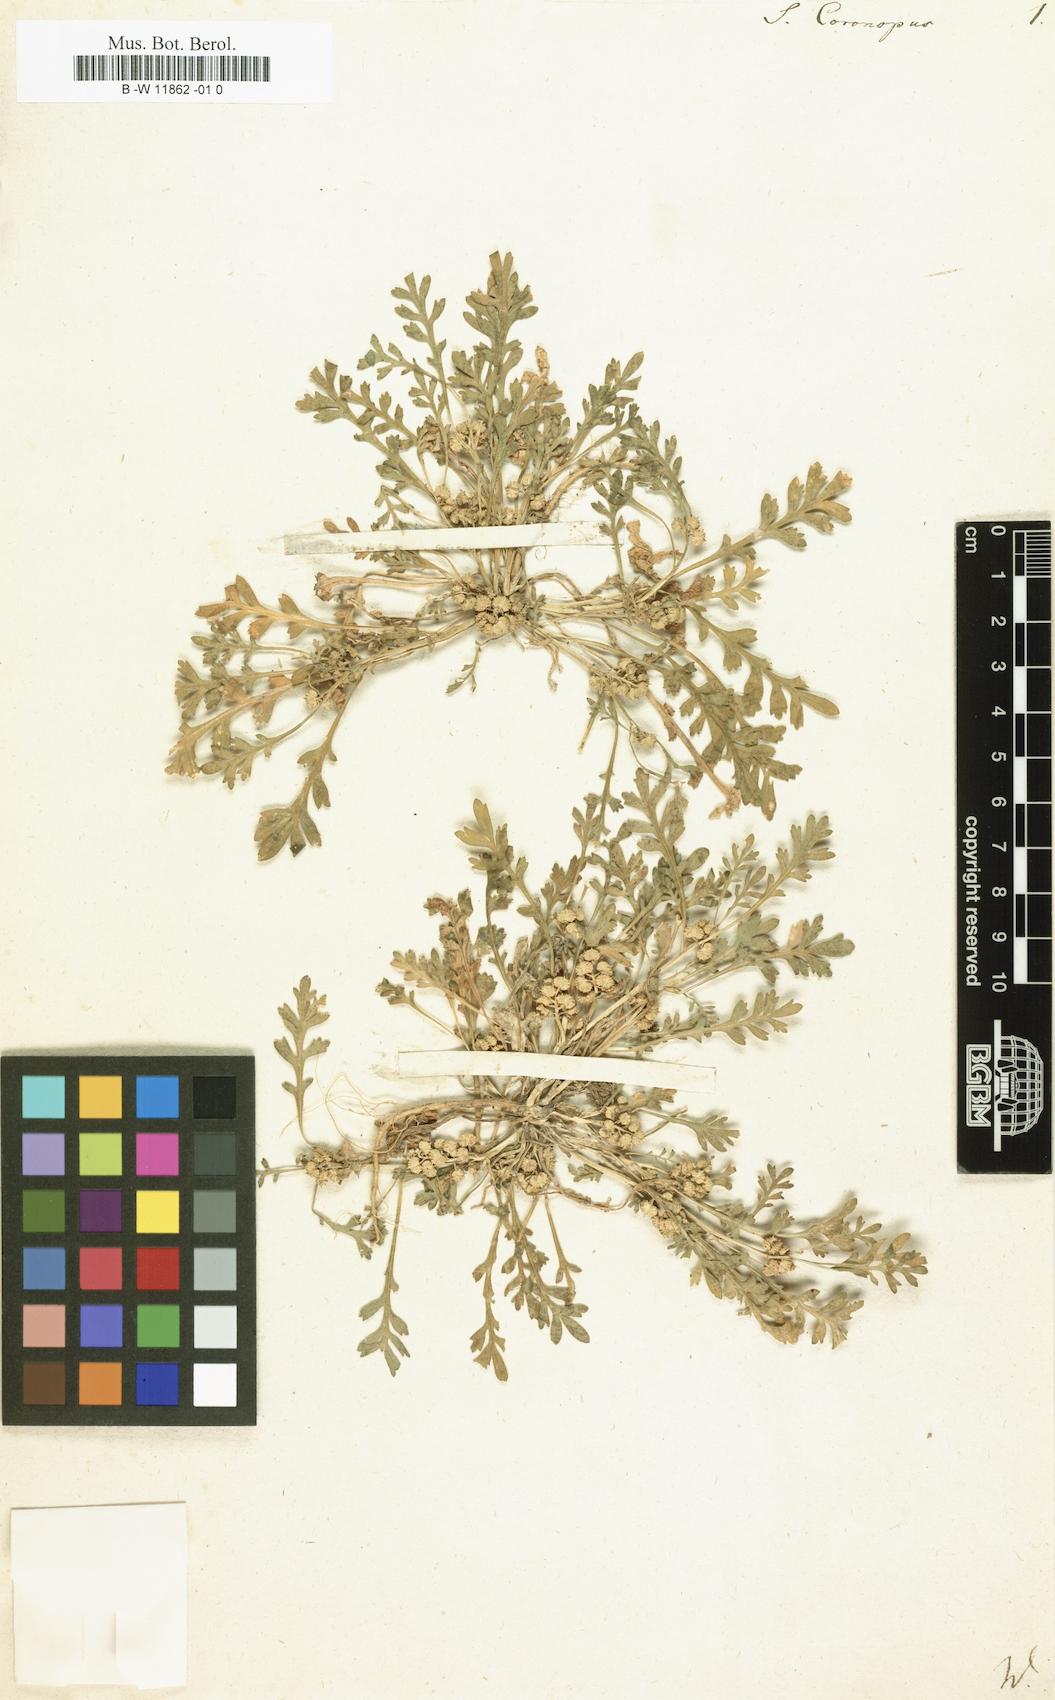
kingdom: Plantae
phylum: Tracheophyta
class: Magnoliopsida
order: Brassicales
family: Brassicaceae
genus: Lepidium
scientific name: Lepidium
